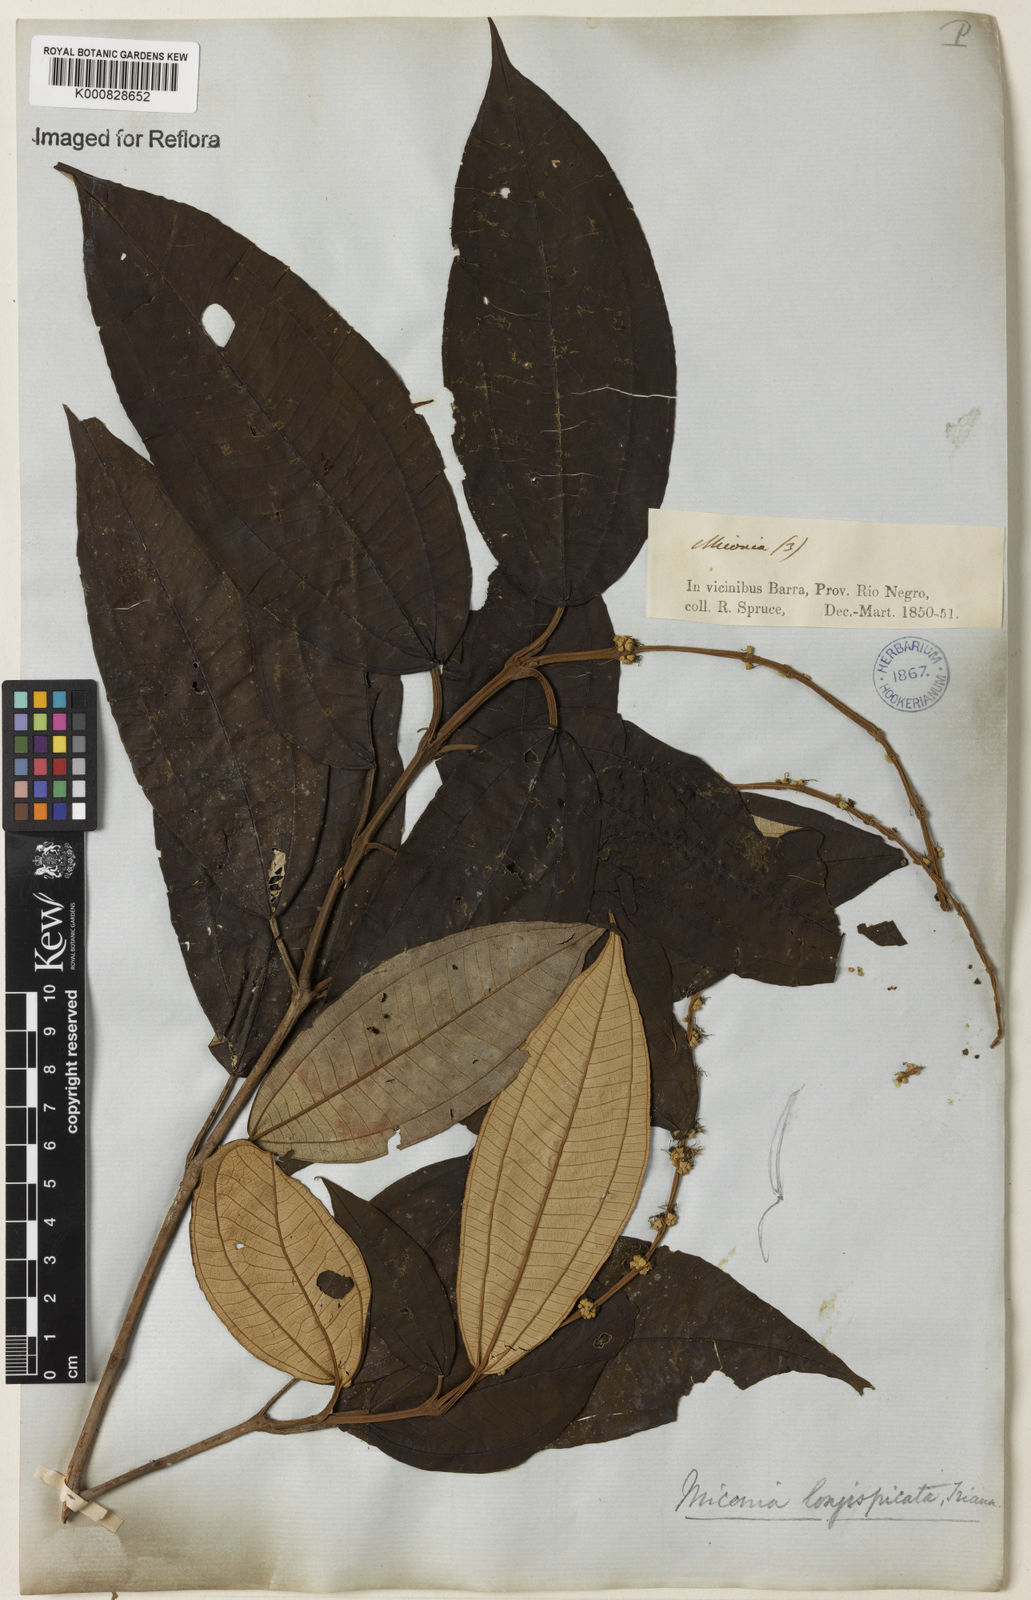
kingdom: Plantae
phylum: Tracheophyta
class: Magnoliopsida
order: Myrtales
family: Melastomataceae
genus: Miconia
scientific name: Miconia longispicata
